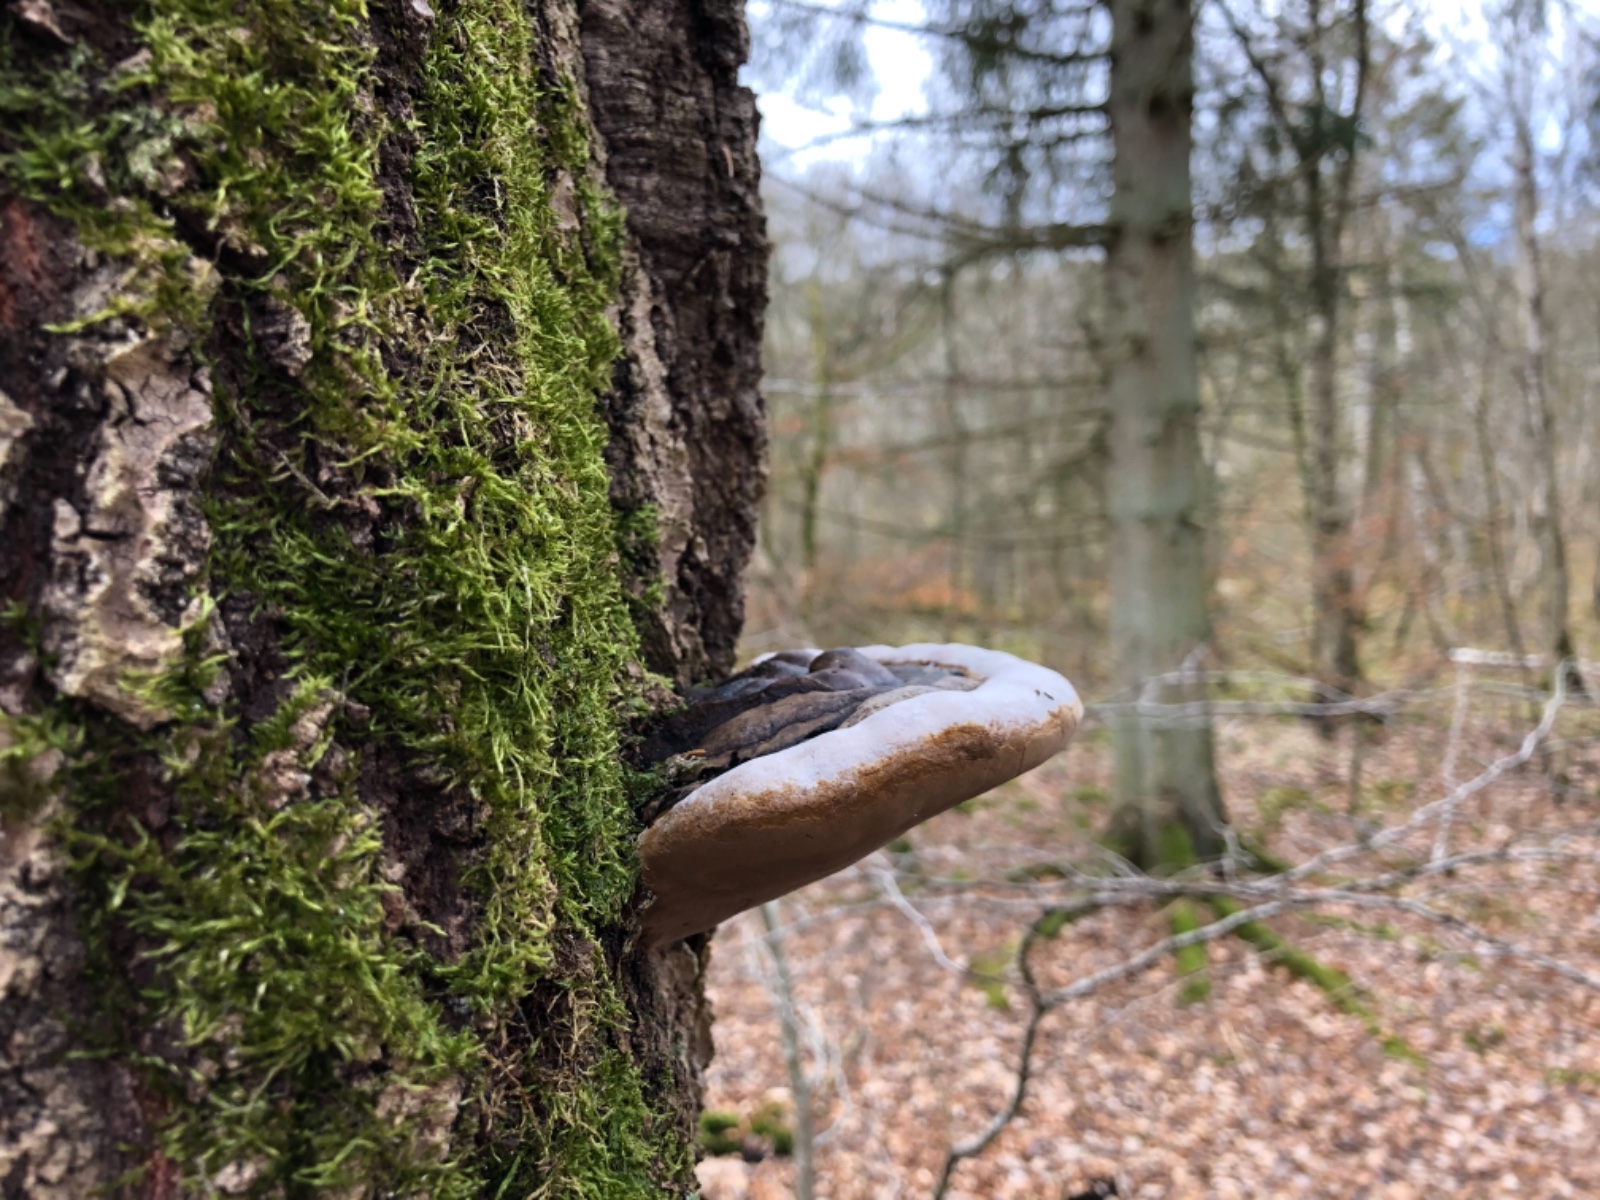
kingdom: Fungi
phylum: Basidiomycota
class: Agaricomycetes
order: Hymenochaetales
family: Hymenochaetaceae
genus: Phellinus
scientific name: Phellinus populicola
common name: poppel-ildporesvamp
